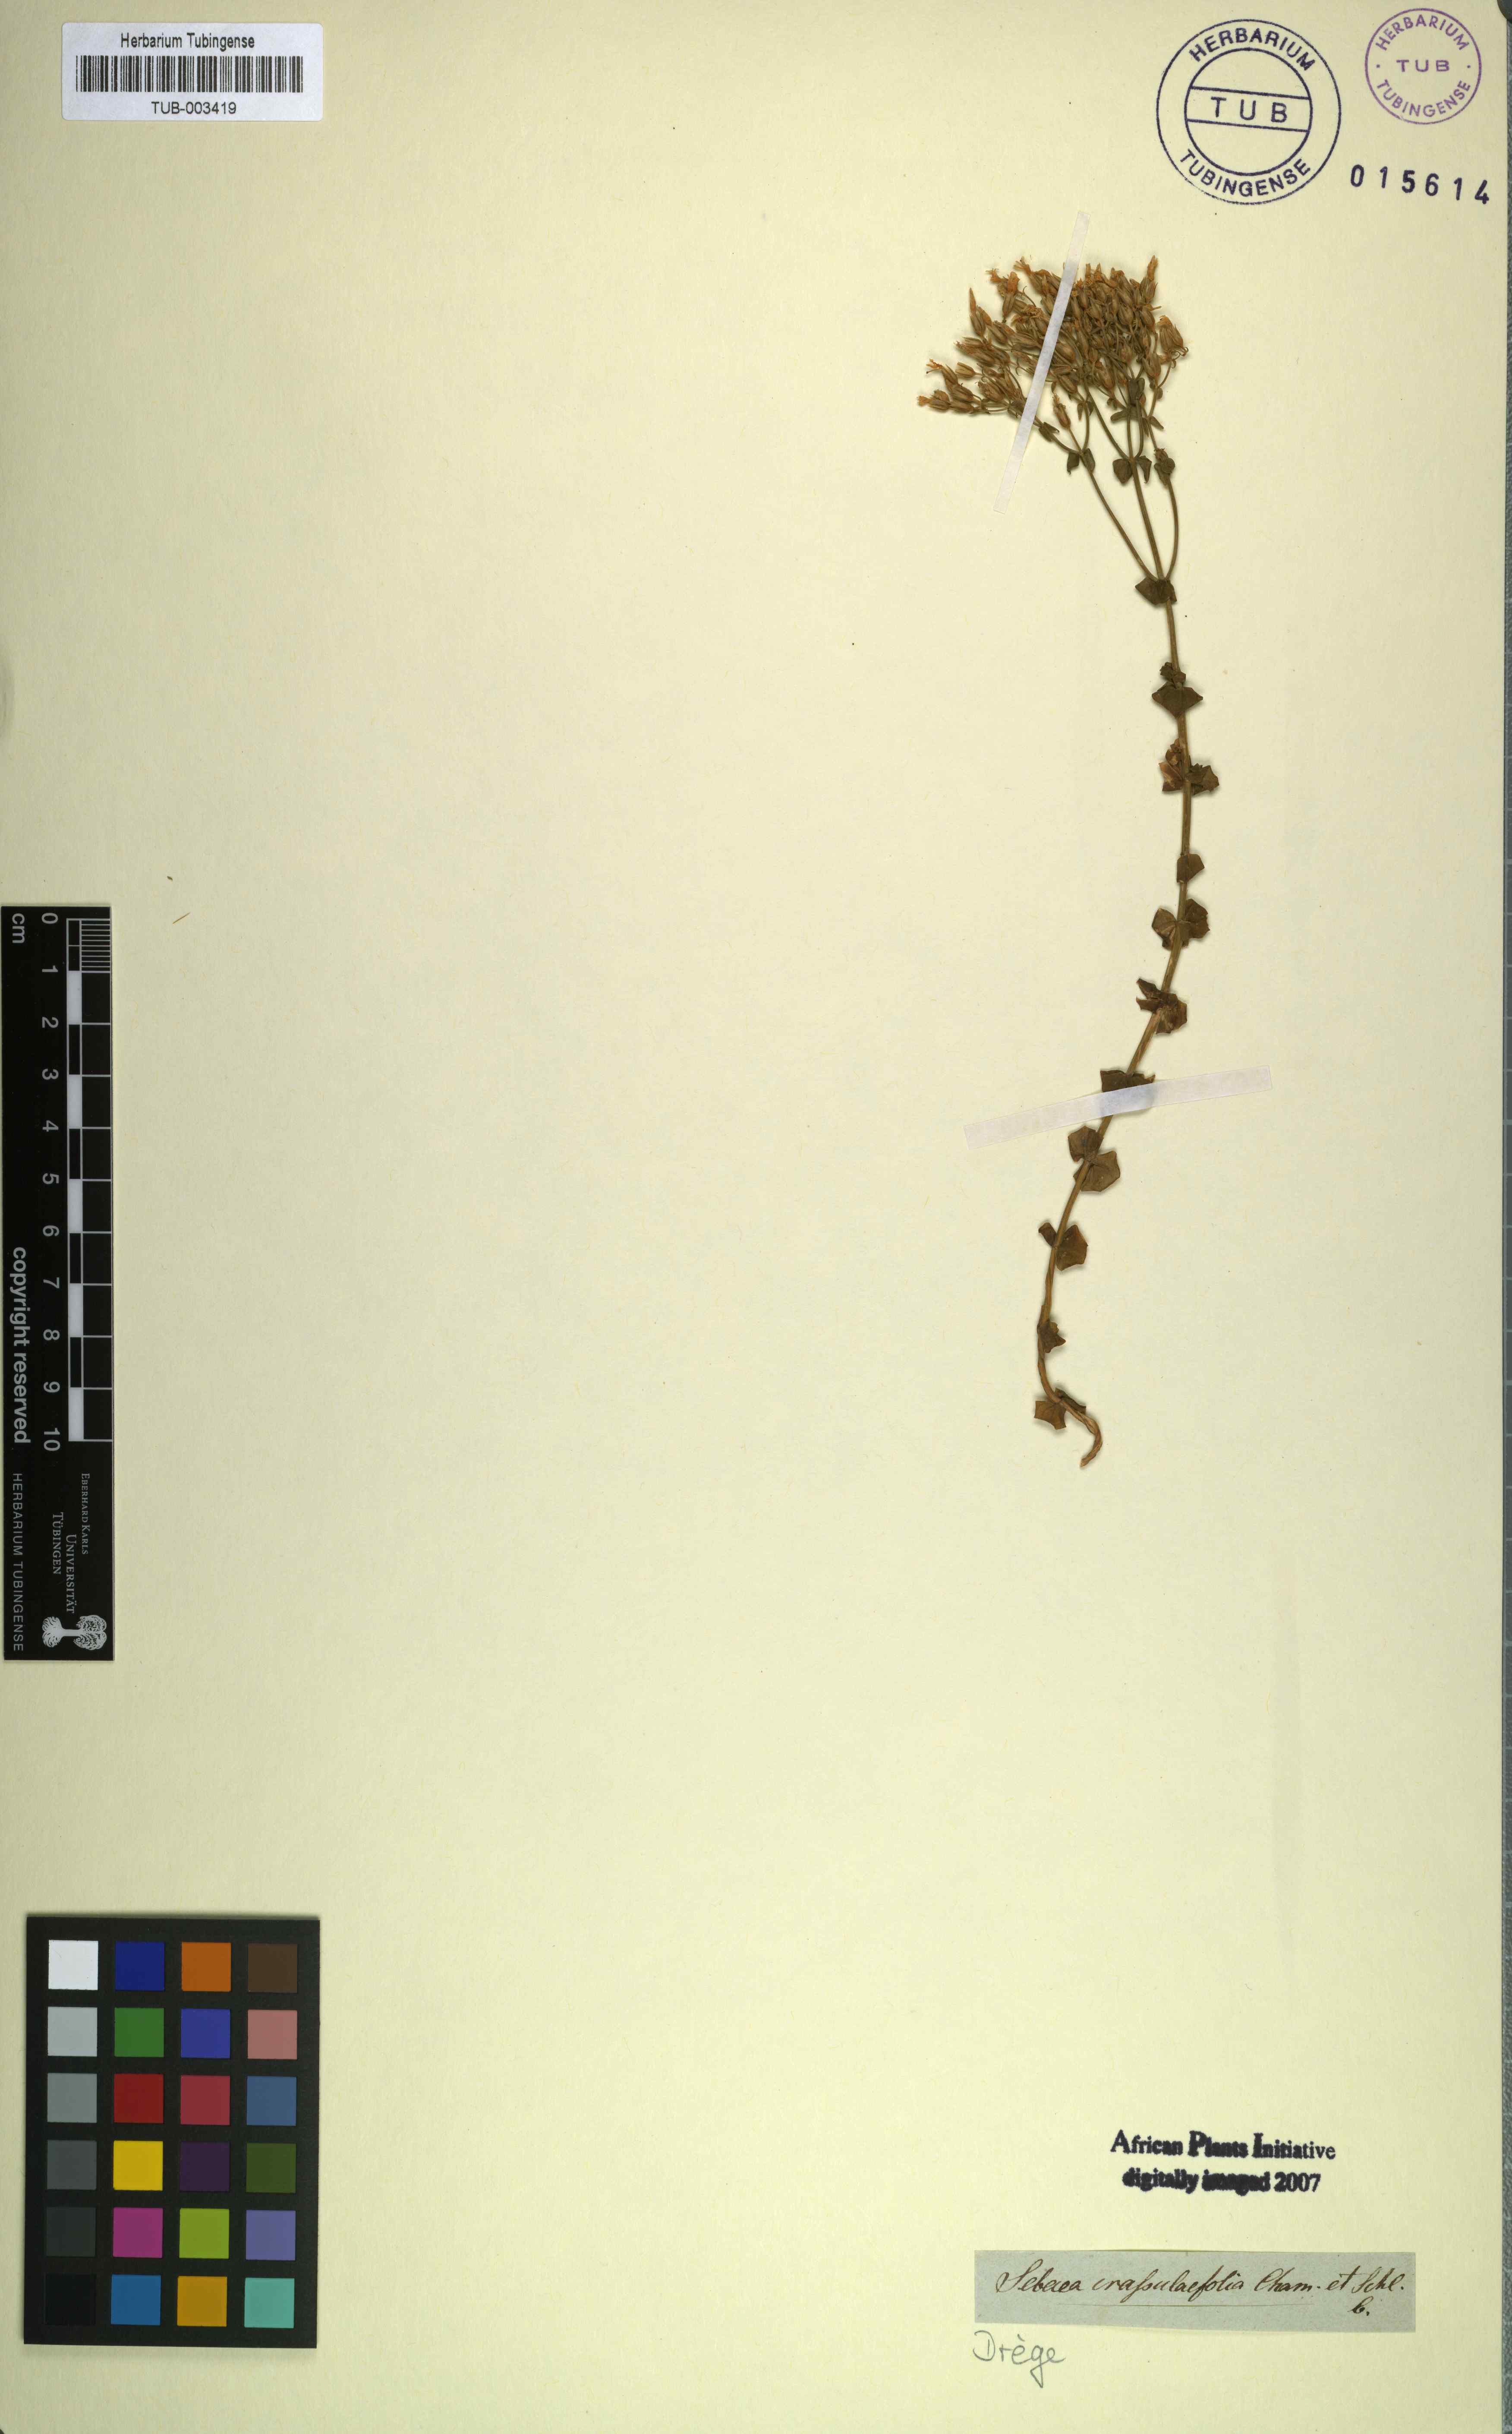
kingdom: Plantae
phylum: Tracheophyta
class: Magnoliopsida
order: Gentianales
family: Gentianaceae
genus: Sebaea
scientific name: Sebaea crassulifolia
